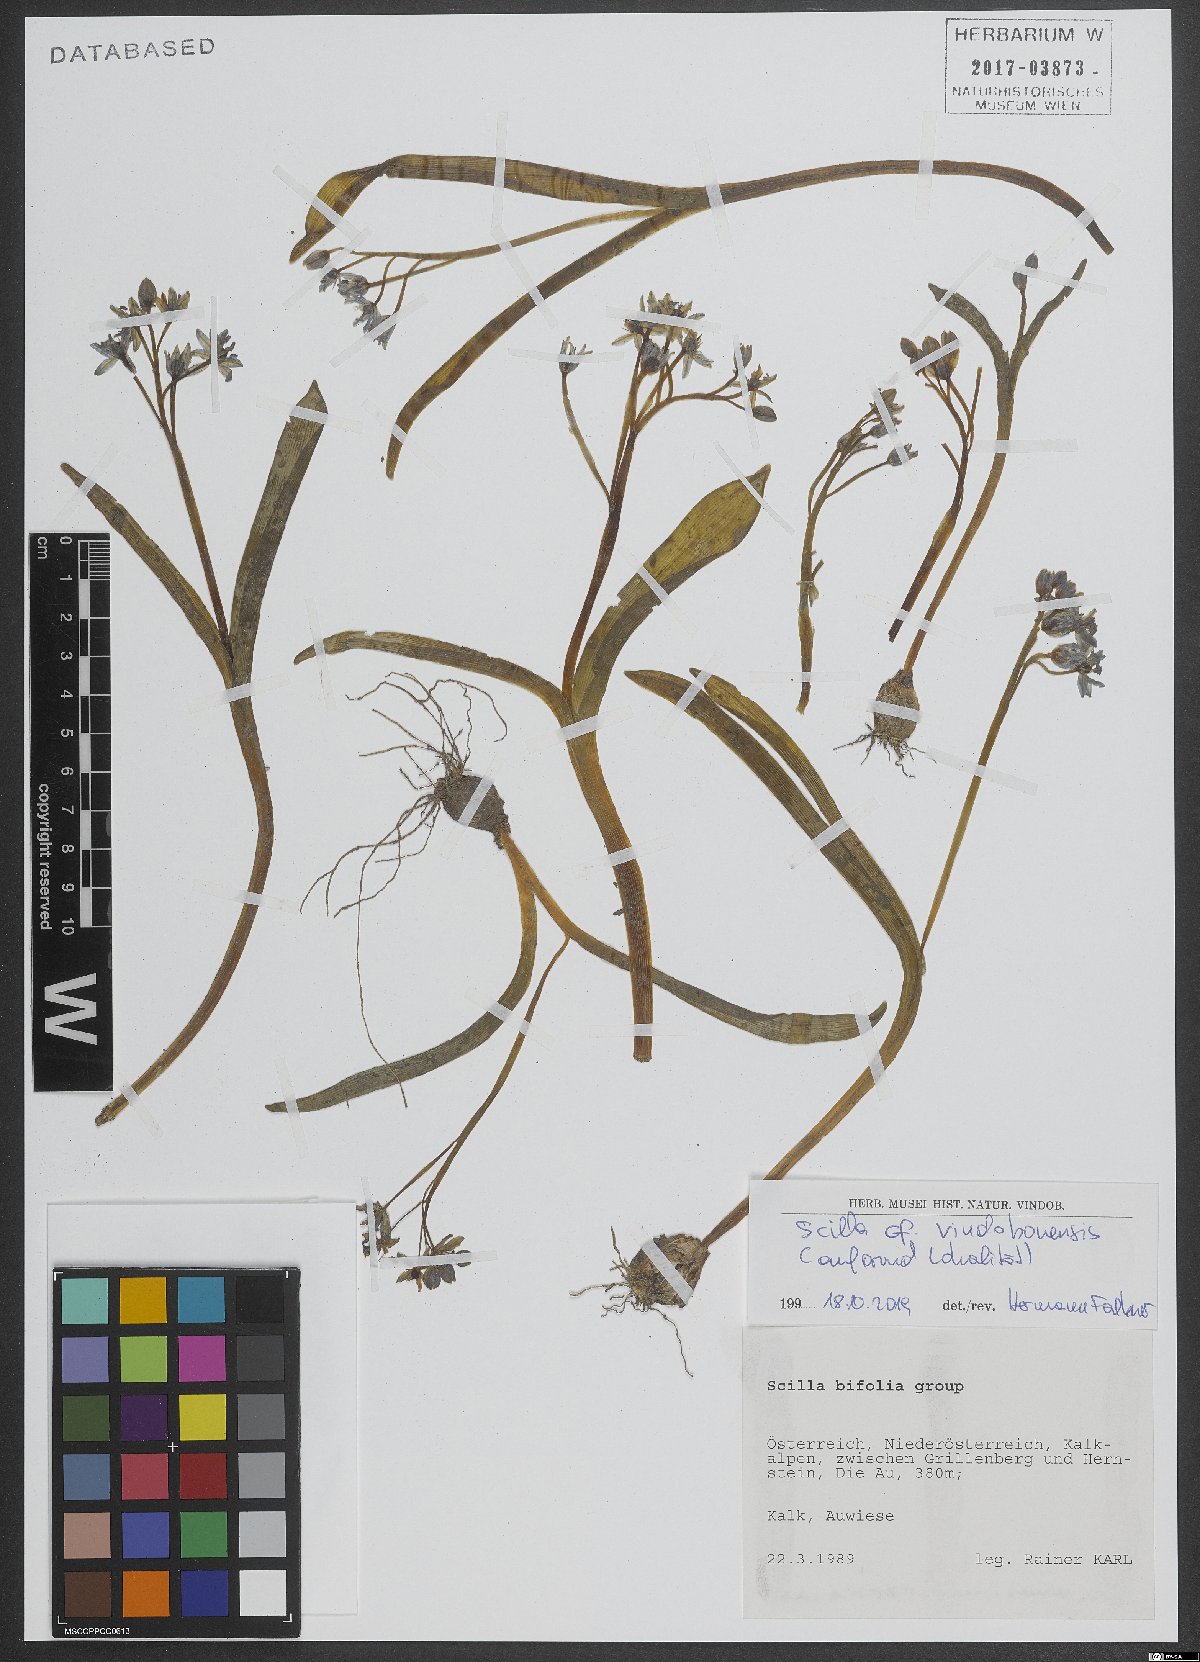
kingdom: Plantae
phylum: Tracheophyta
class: Liliopsida
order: Asparagales
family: Asparagaceae
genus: Scilla
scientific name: Scilla vindobonensis
